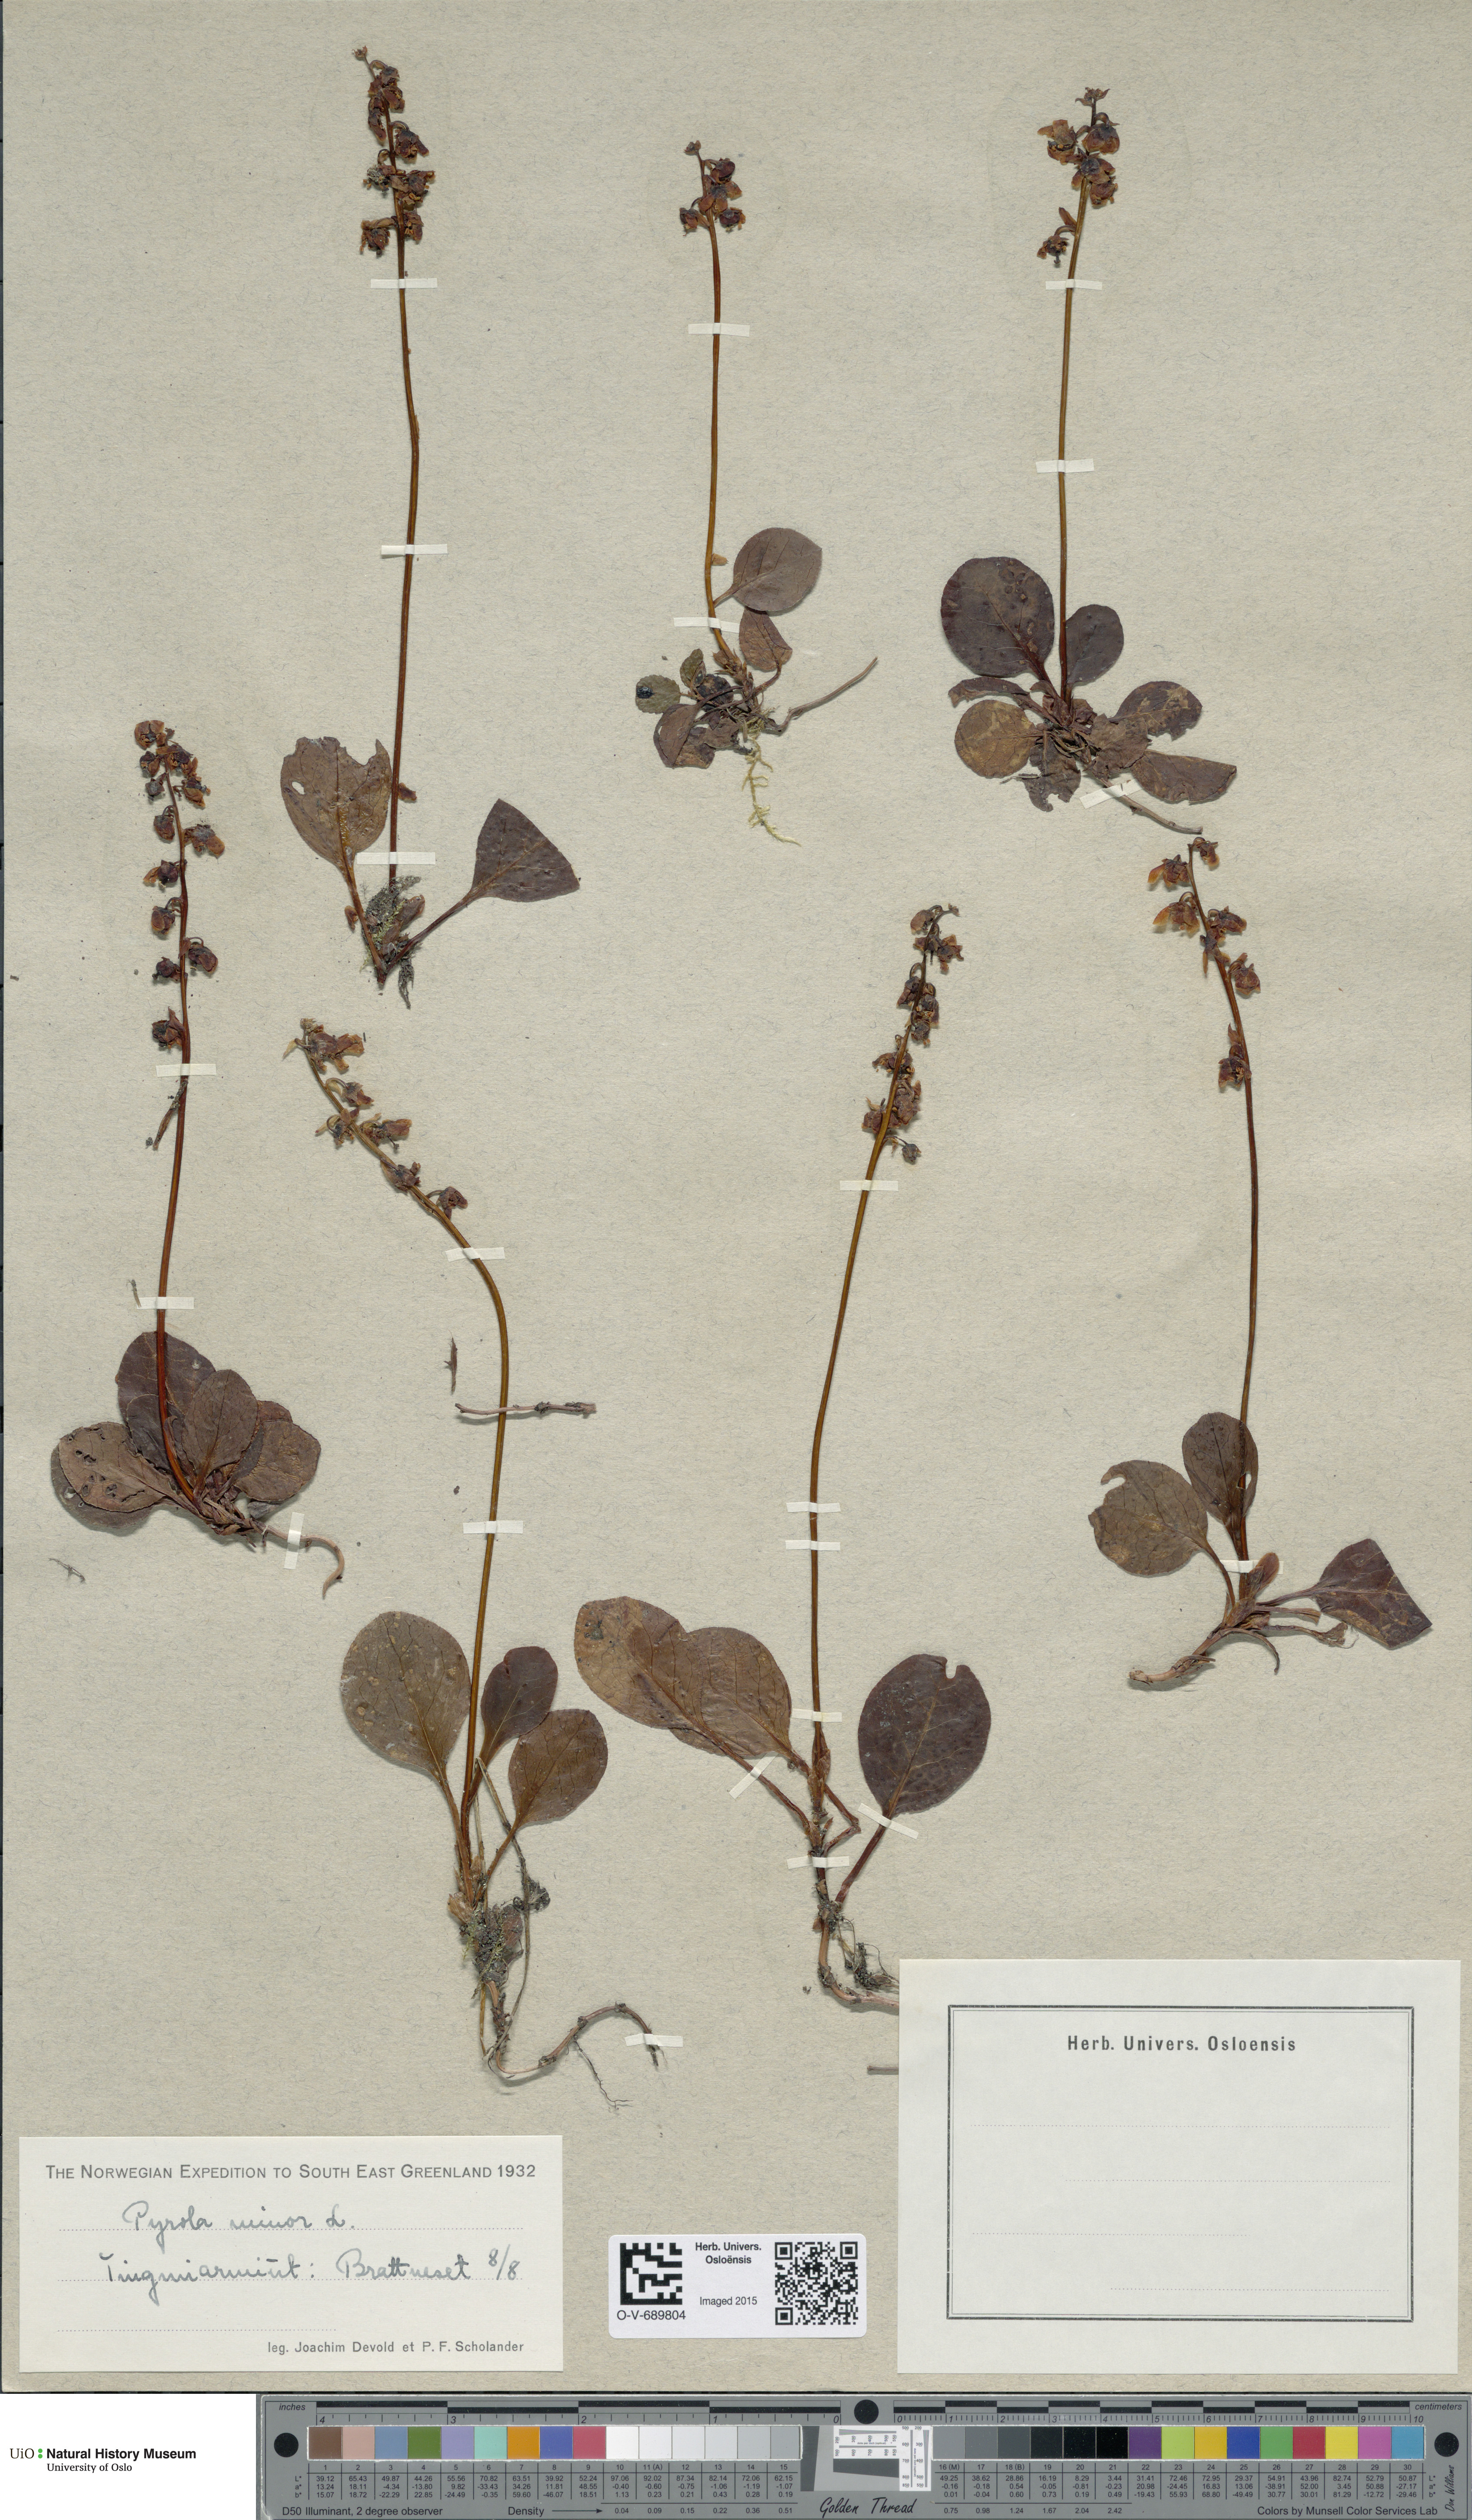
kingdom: Plantae
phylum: Tracheophyta
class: Magnoliopsida
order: Ericales
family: Ericaceae
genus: Pyrola
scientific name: Pyrola minor
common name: Common wintergreen
